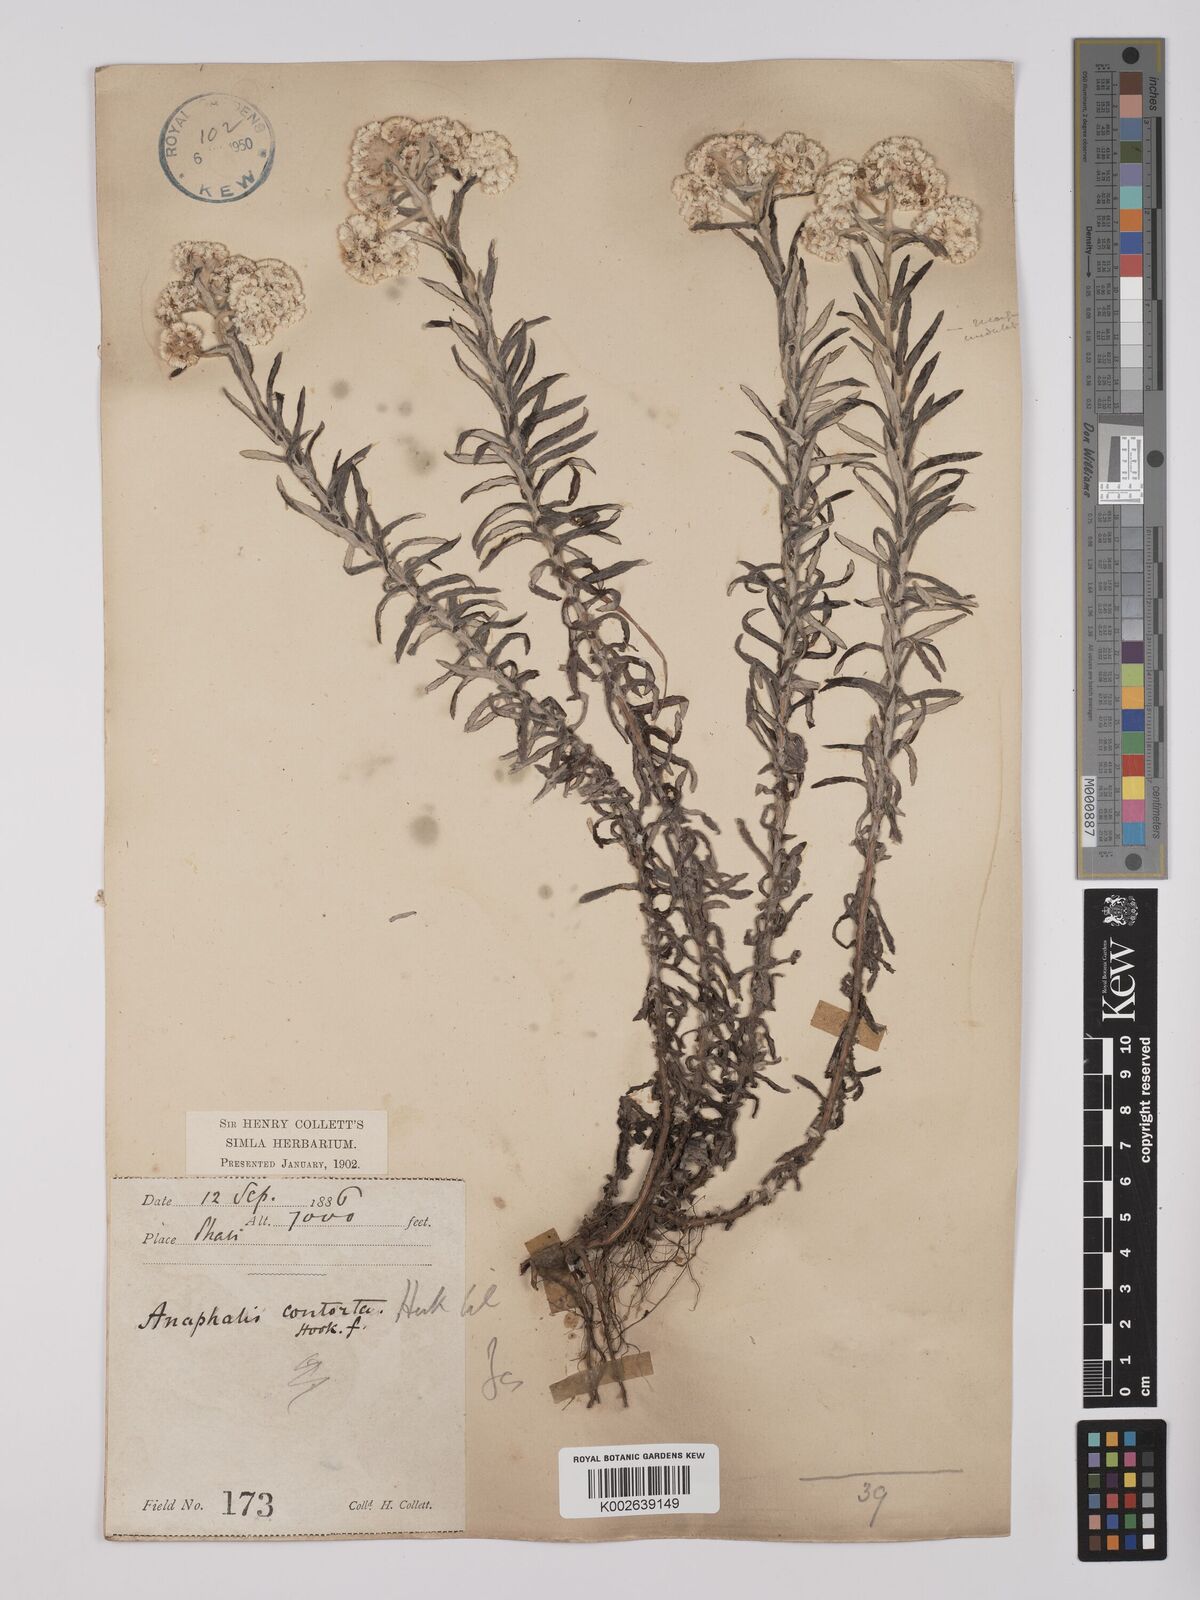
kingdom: Plantae
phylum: Tracheophyta
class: Magnoliopsida
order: Asterales
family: Asteraceae
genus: Anaphalis
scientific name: Anaphalis contorta
